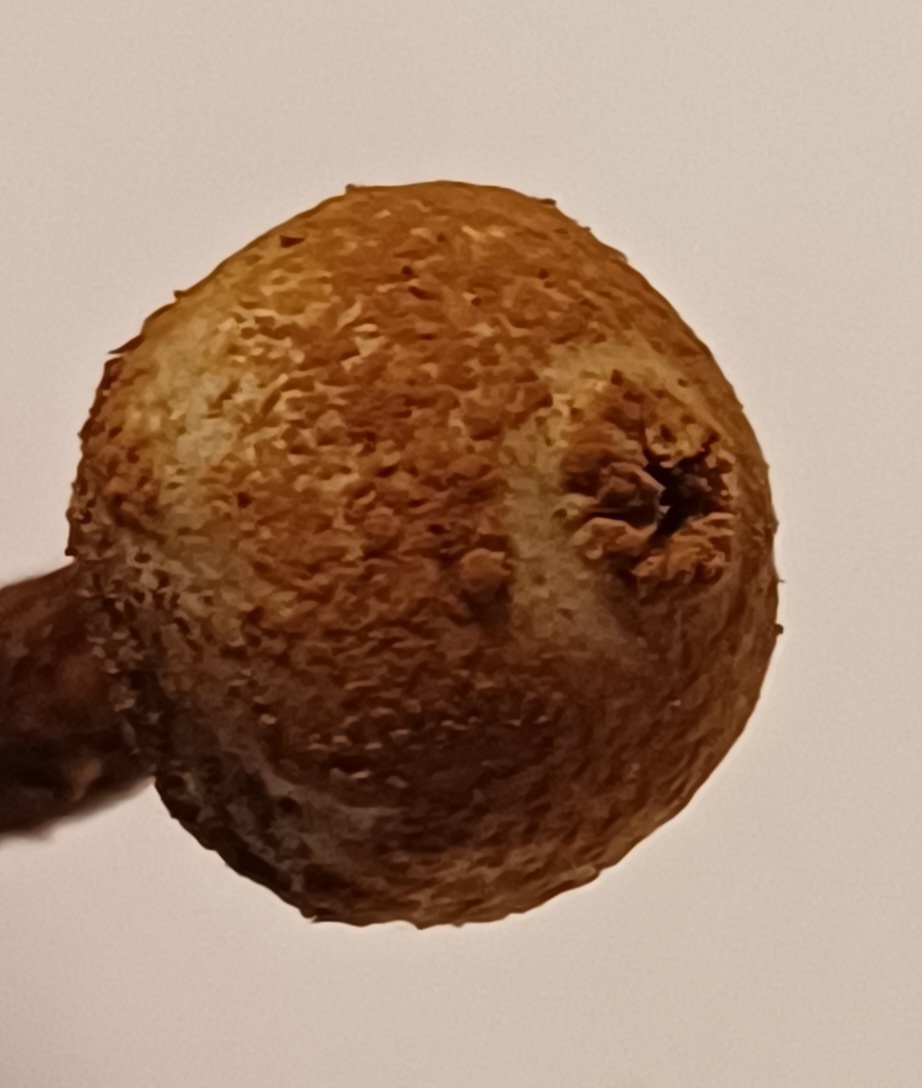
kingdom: Fungi
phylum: Basidiomycota
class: Agaricomycetes
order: Agaricales
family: Agaricaceae
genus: Tulostoma
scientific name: Tulostoma winterhoffii
